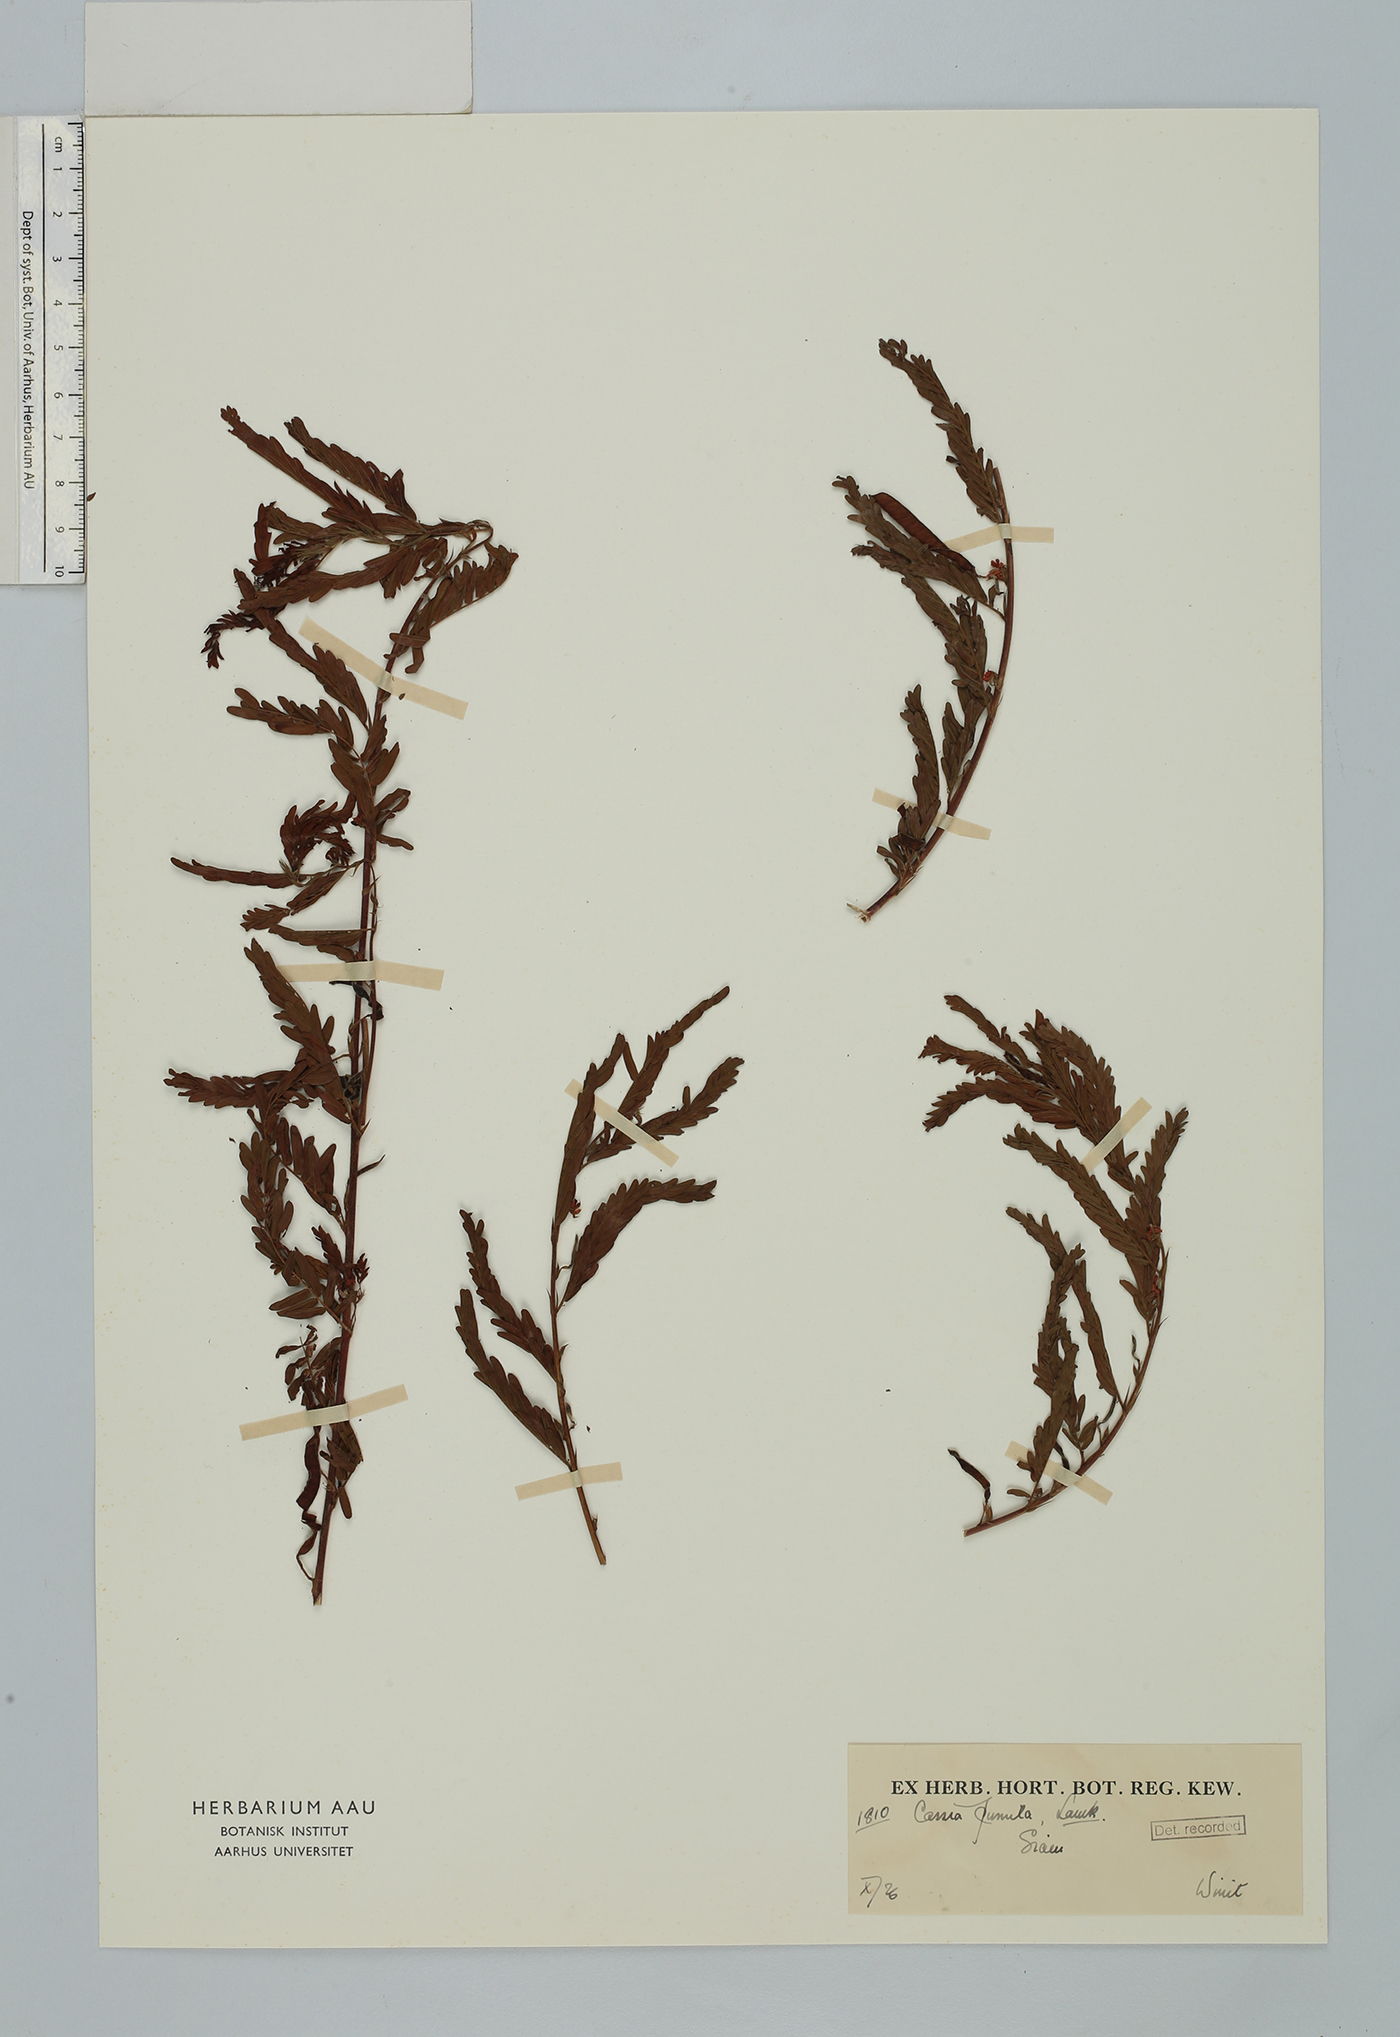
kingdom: Plantae
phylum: Tracheophyta
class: Magnoliopsida
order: Fabales
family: Fabaceae
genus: Chamaecrista
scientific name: Chamaecrista pumila
